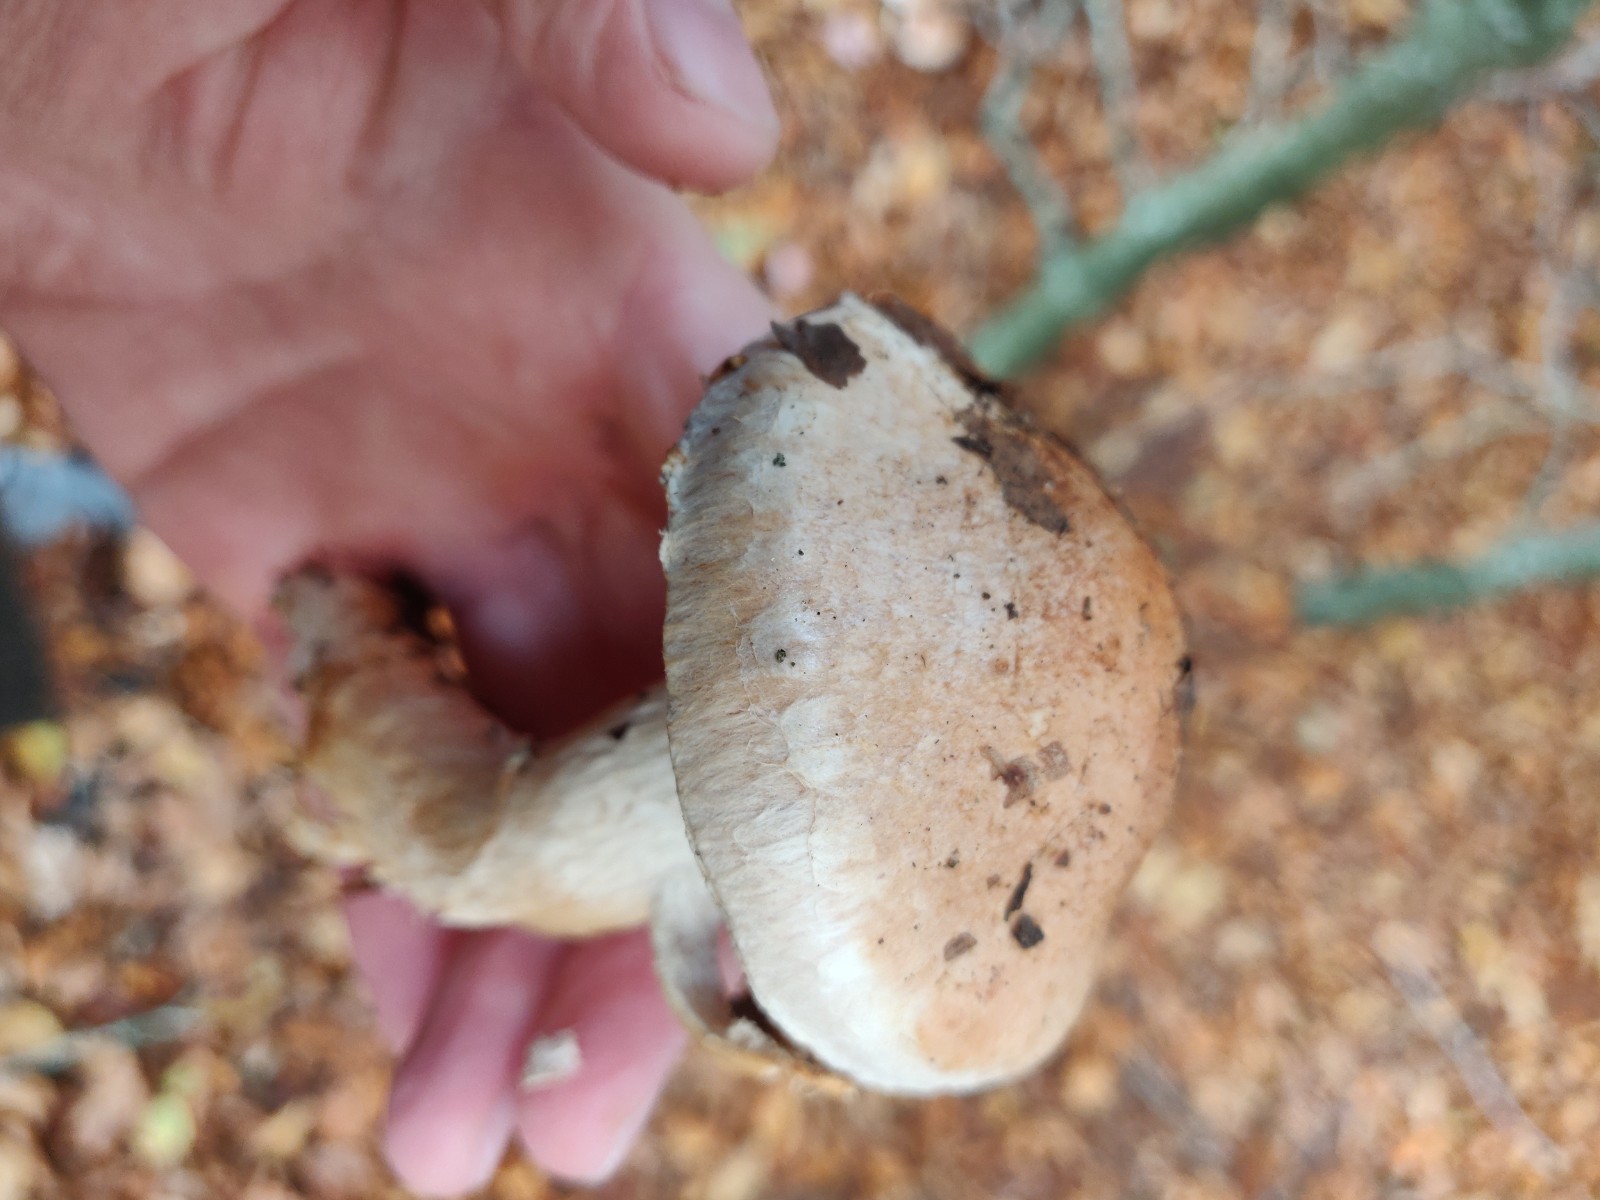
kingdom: Fungi
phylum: Basidiomycota
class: Agaricomycetes
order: Agaricales
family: Cortinariaceae
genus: Phlegmacium
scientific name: Phlegmacium vulpinum
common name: ringbæltet slørhat
